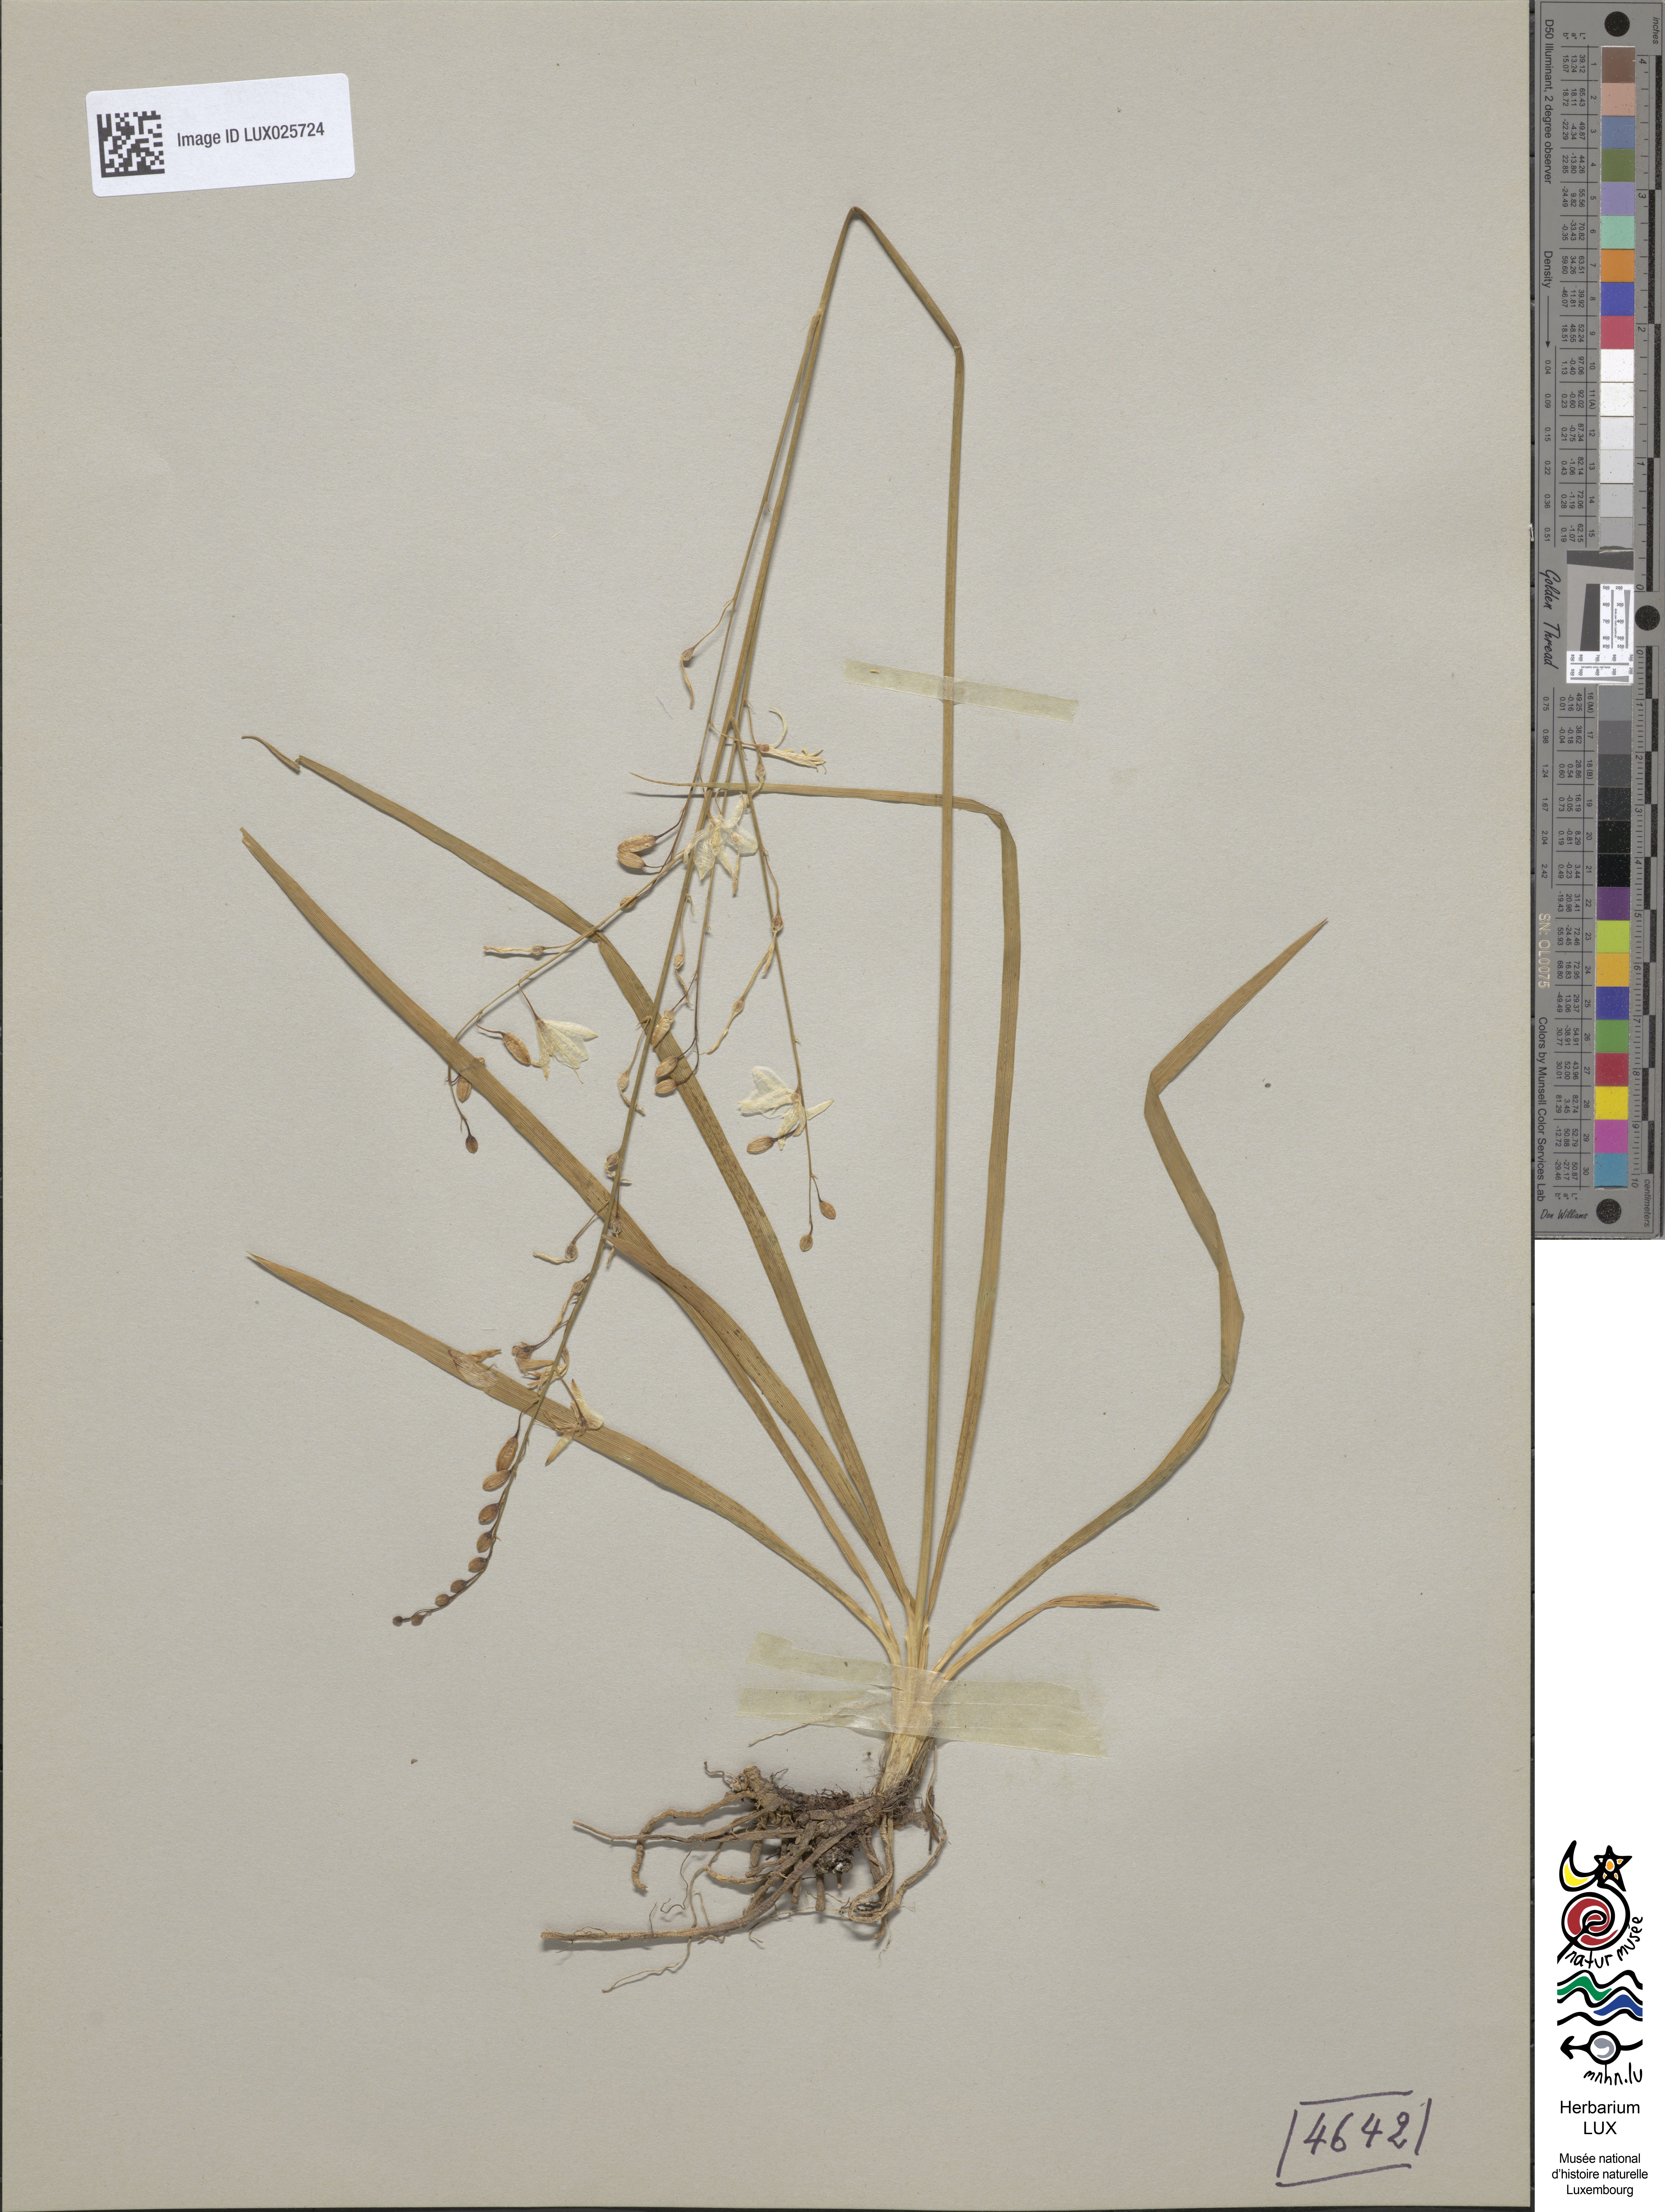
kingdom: Plantae
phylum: Tracheophyta
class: Liliopsida
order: Asparagales
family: Asparagaceae
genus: Anthericum
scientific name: Anthericum ramosum
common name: Branched st. bernard's-lily
